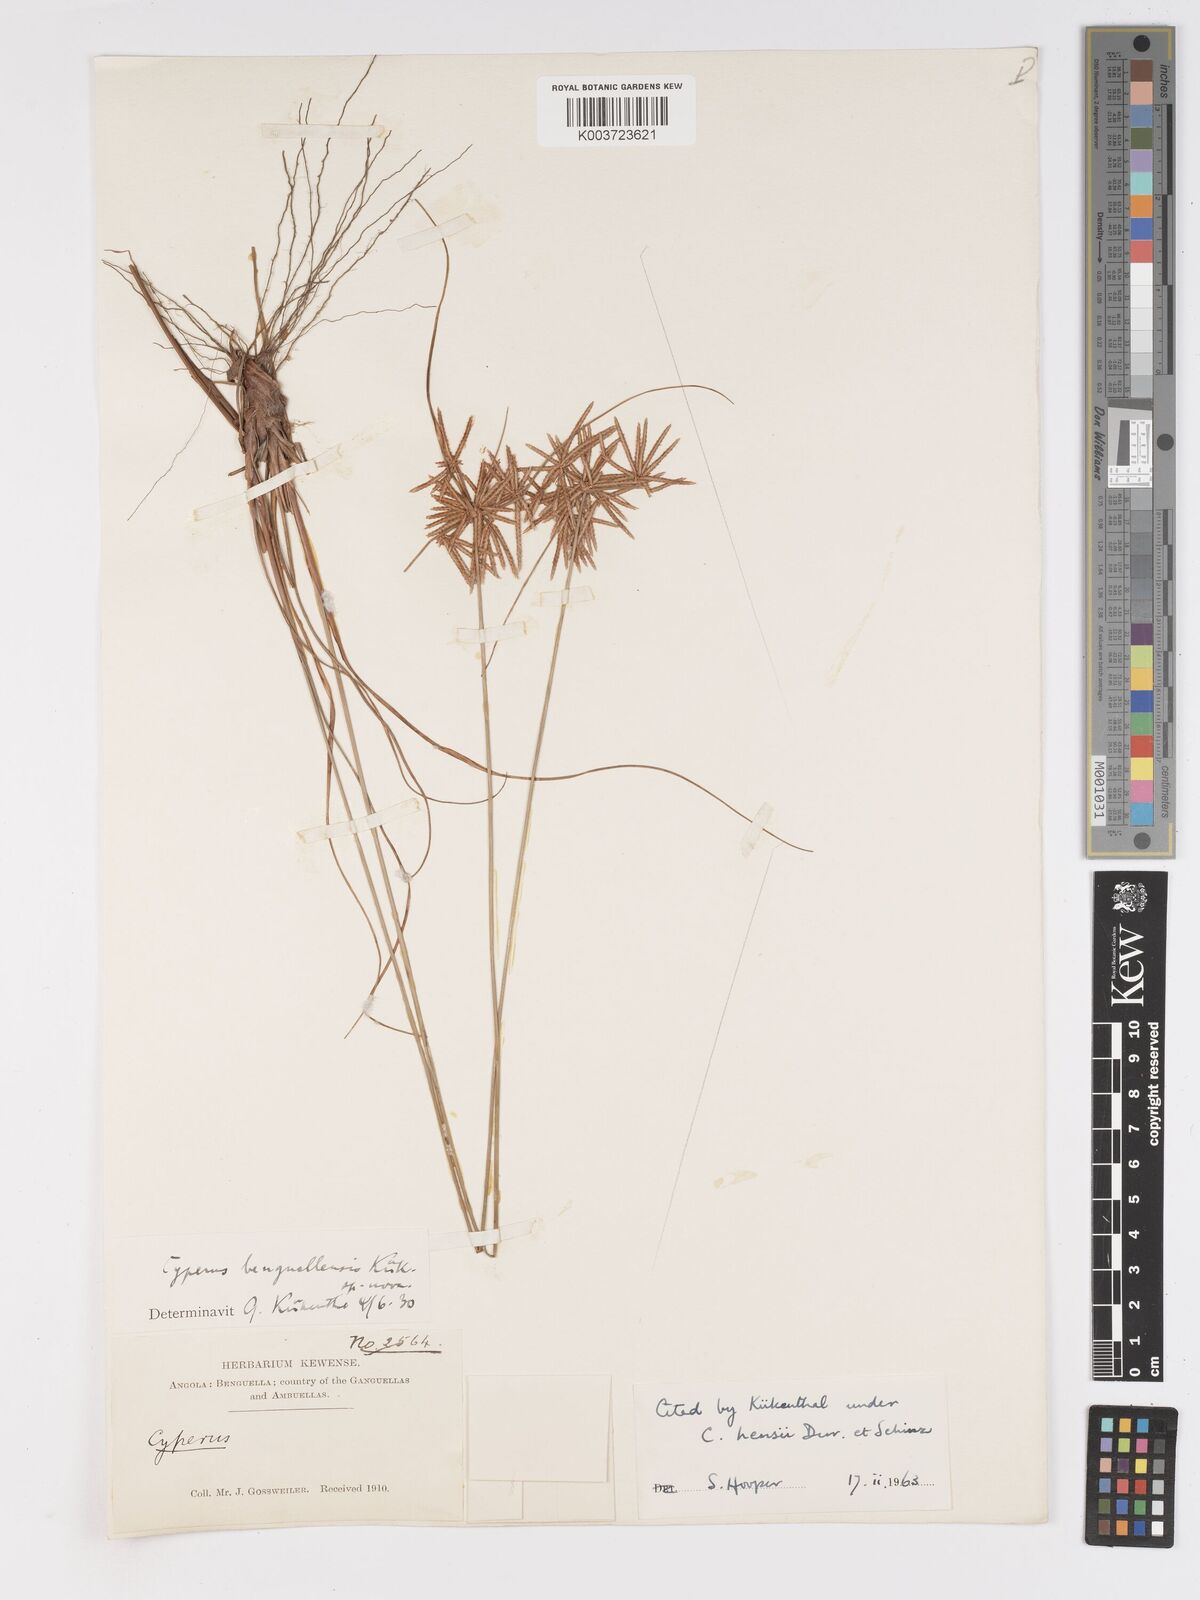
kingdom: Plantae
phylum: Tracheophyta
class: Liliopsida
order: Poales
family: Cyperaceae
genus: Cyperus
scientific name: Cyperus
